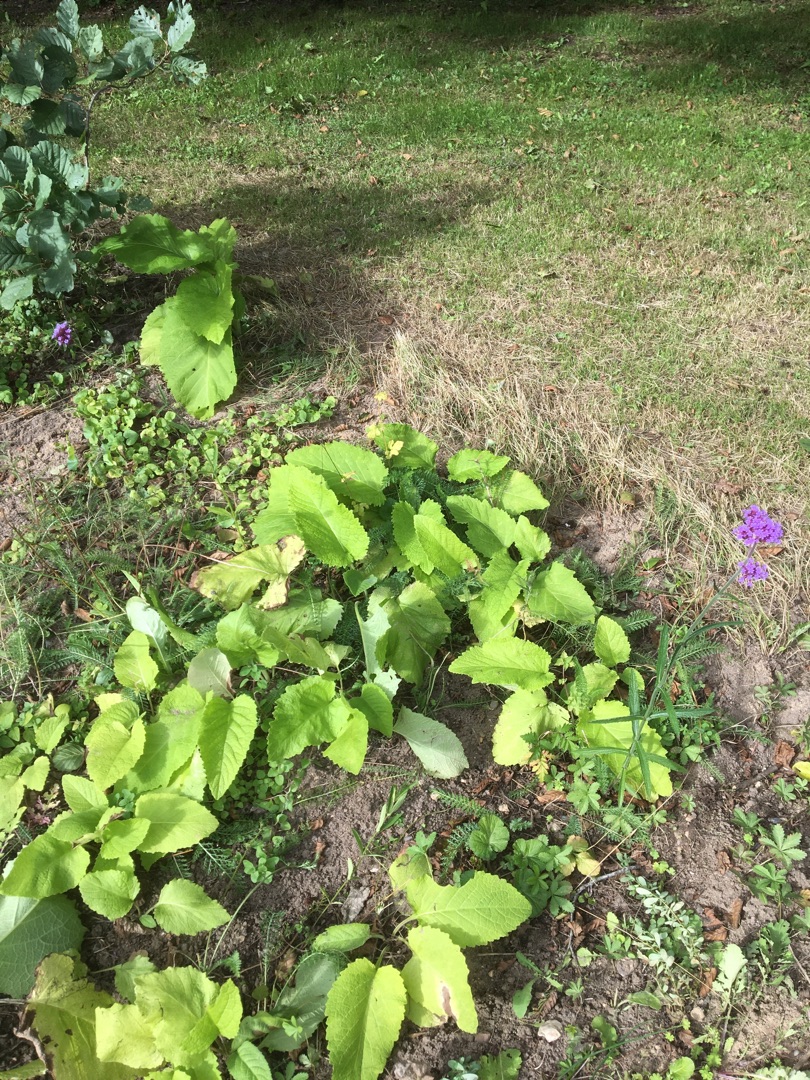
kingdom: Plantae
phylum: Tracheophyta
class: Magnoliopsida
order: Asterales
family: Asteraceae
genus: Telekia
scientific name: Telekia speciosa
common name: Tusindstråle
